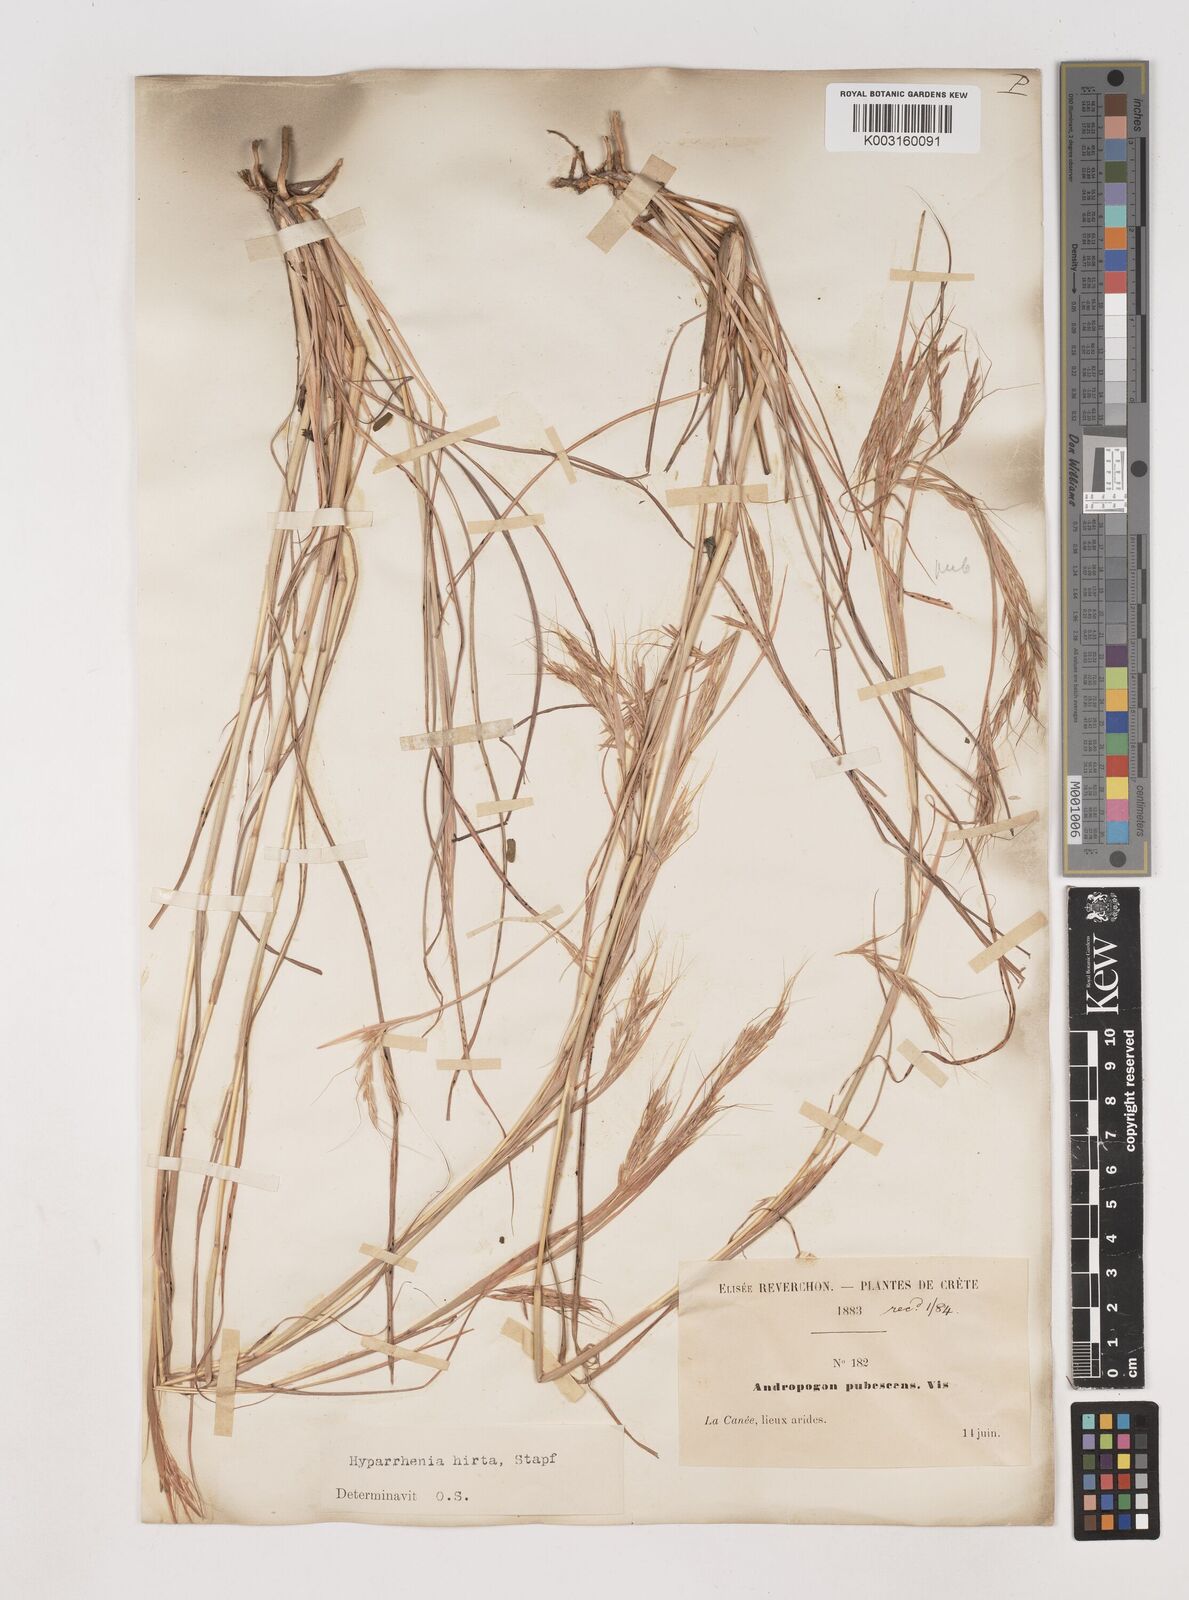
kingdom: Plantae
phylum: Tracheophyta
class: Liliopsida
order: Poales
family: Poaceae
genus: Hyparrhenia
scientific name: Hyparrhenia hirta
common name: Thatching grass
